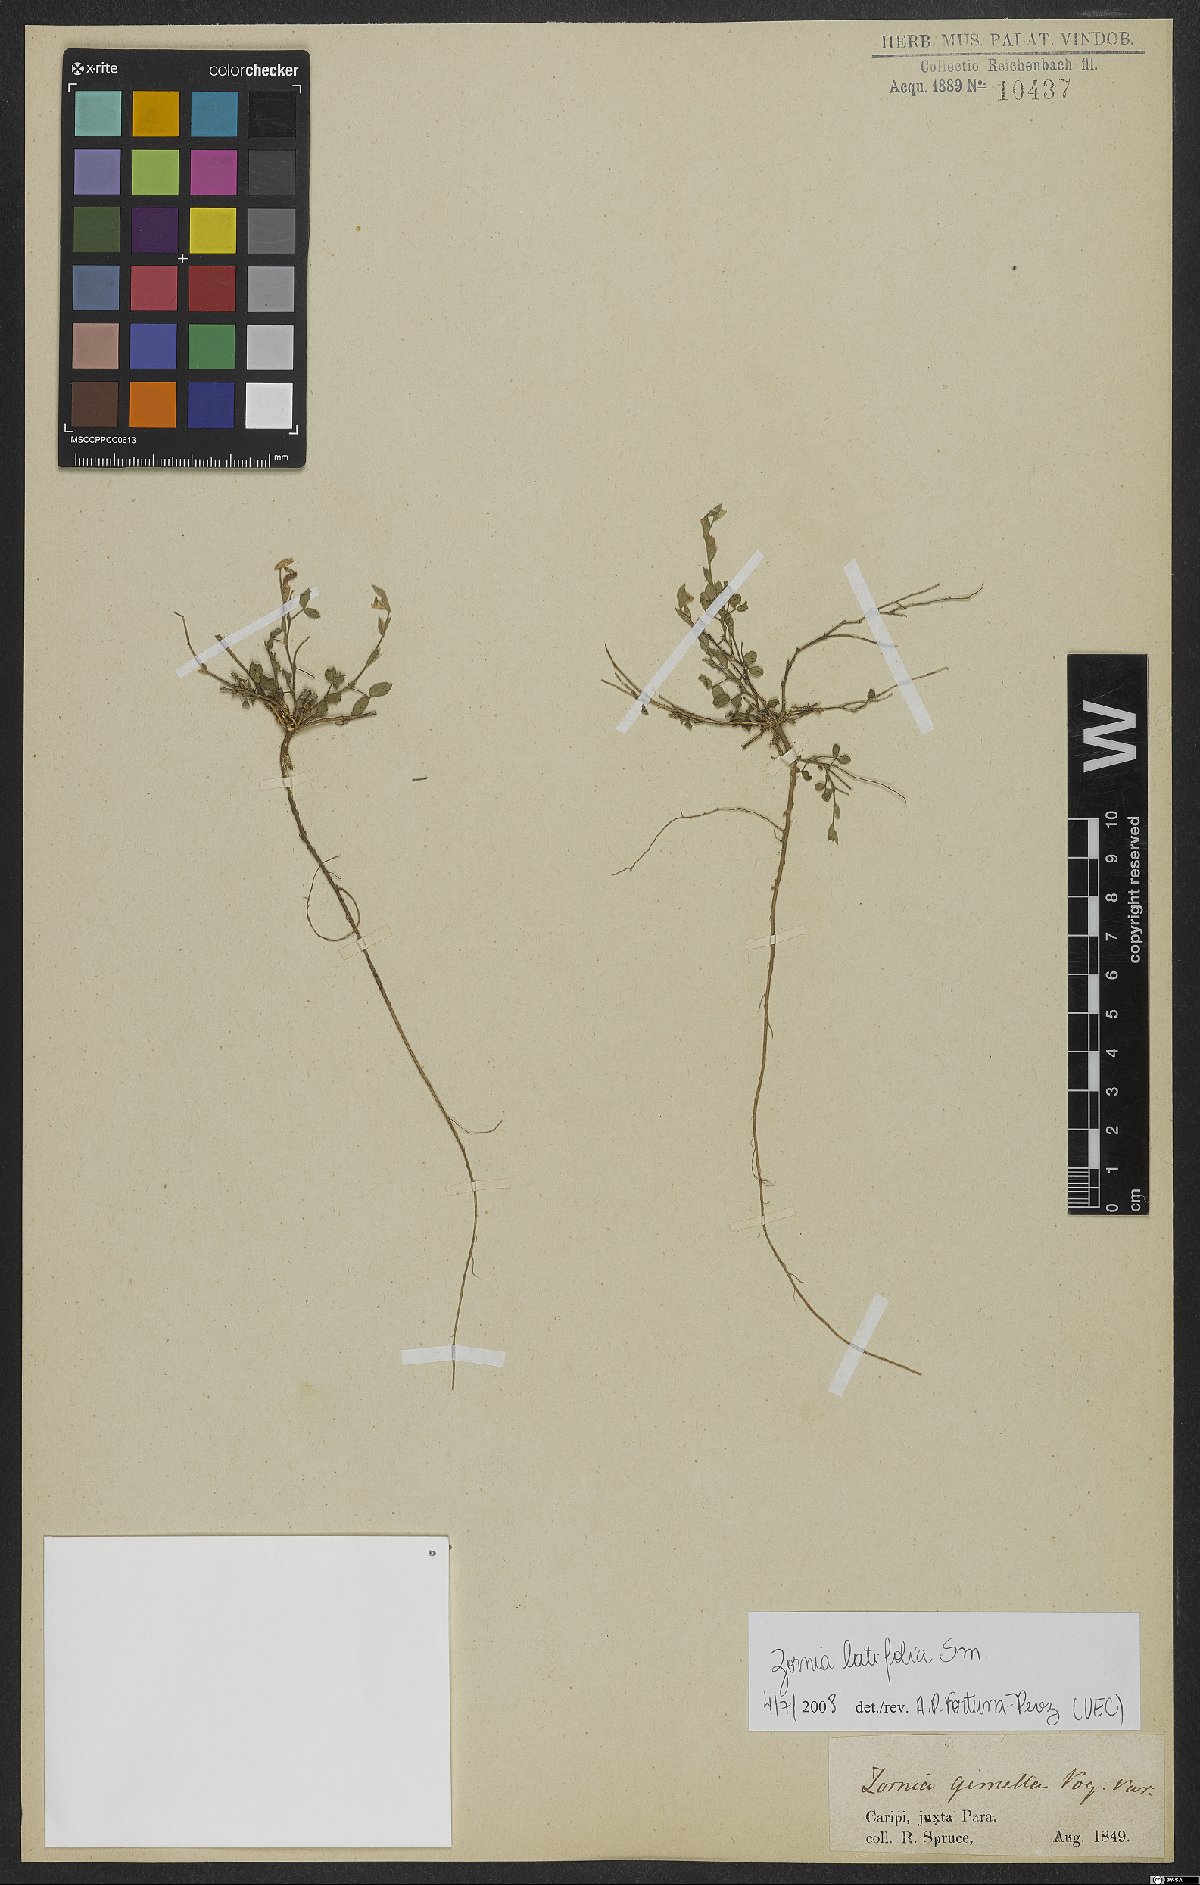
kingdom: Plantae
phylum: Tracheophyta
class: Magnoliopsida
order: Fabales
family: Fabaceae
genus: Zornia
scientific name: Zornia sericea
